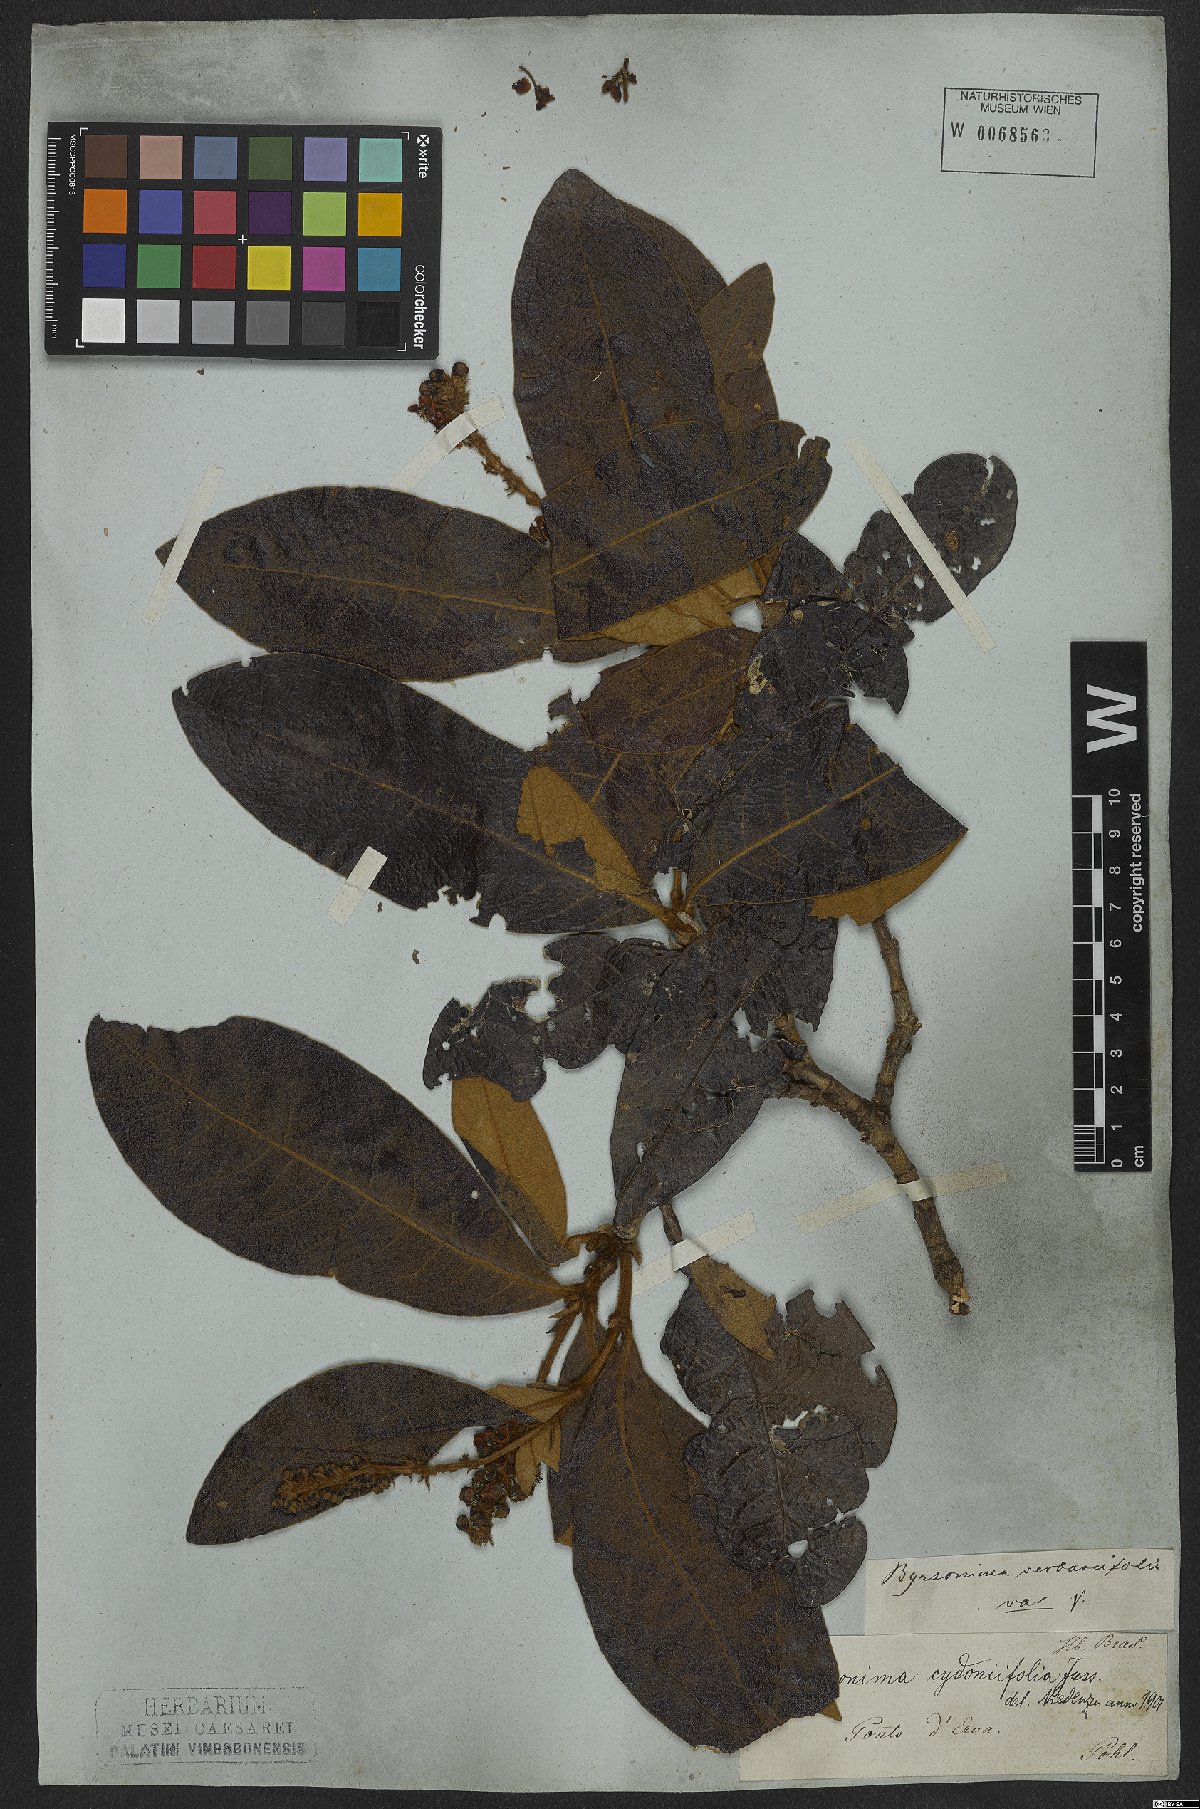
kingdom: Plantae
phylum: Tracheophyta
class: Magnoliopsida
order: Malpighiales
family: Malpighiaceae
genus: Byrsonima
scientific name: Byrsonima cydoniifolia
